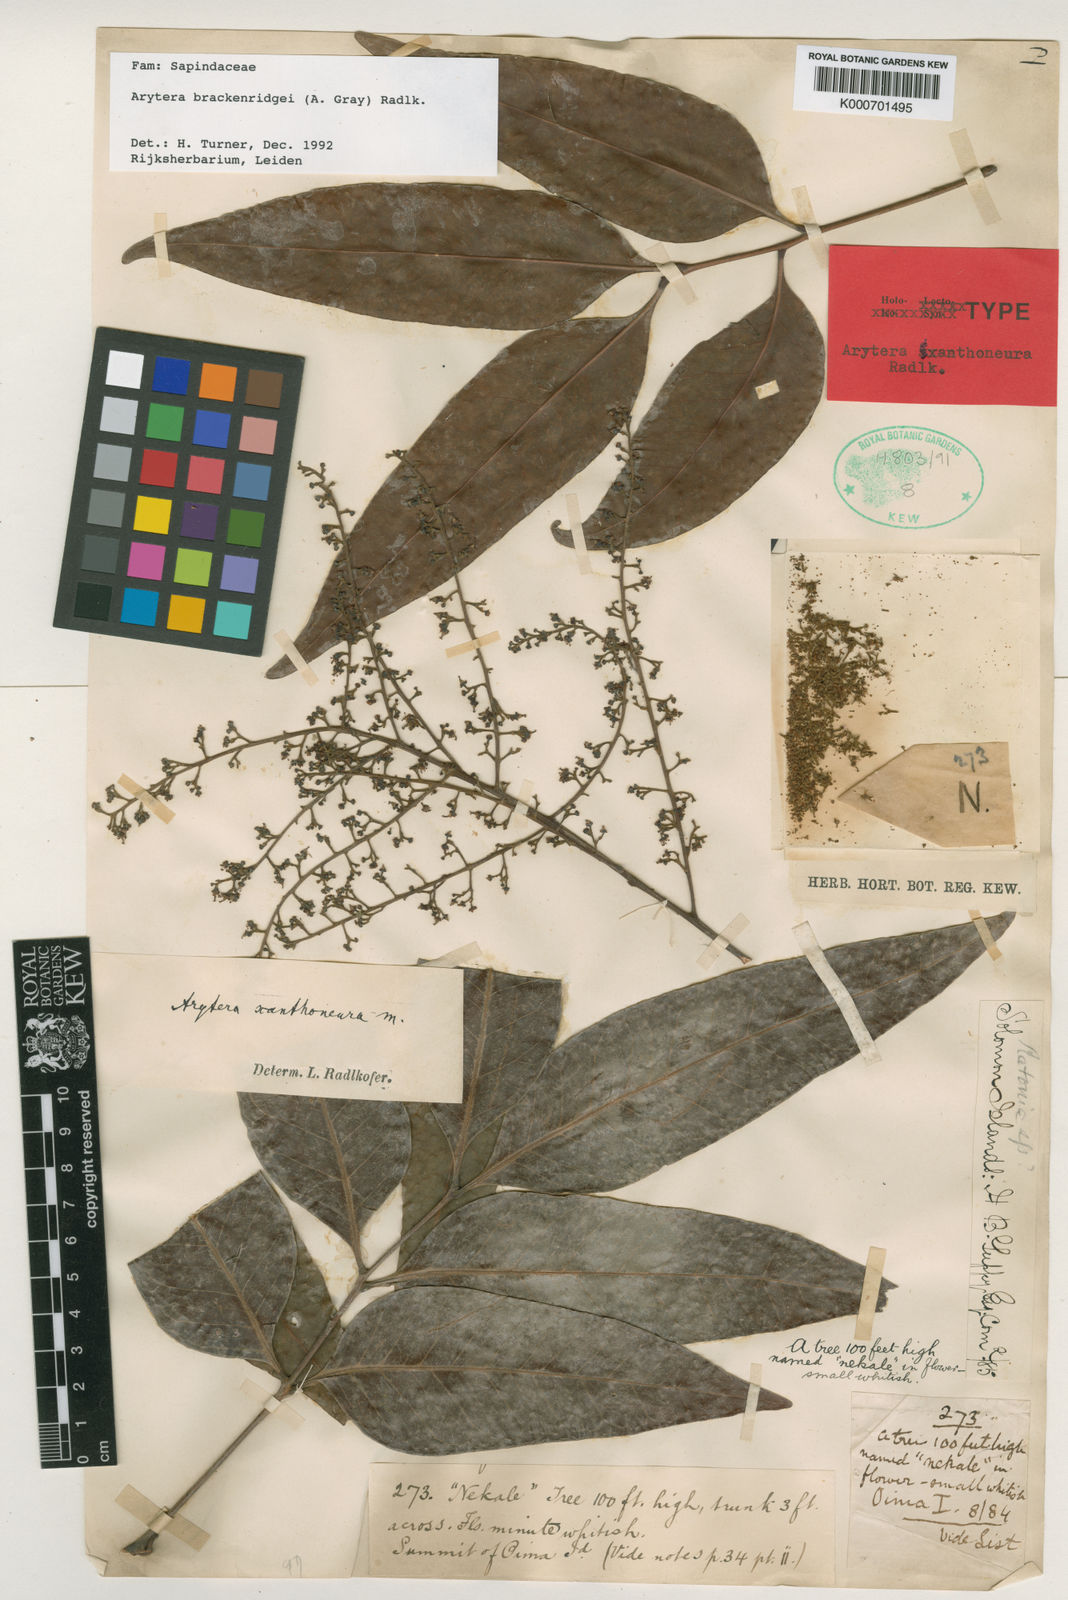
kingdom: Plantae
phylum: Tracheophyta
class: Magnoliopsida
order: Sapindales
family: Sapindaceae
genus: Lepidocupania
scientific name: Lepidocupania brackenridgei
